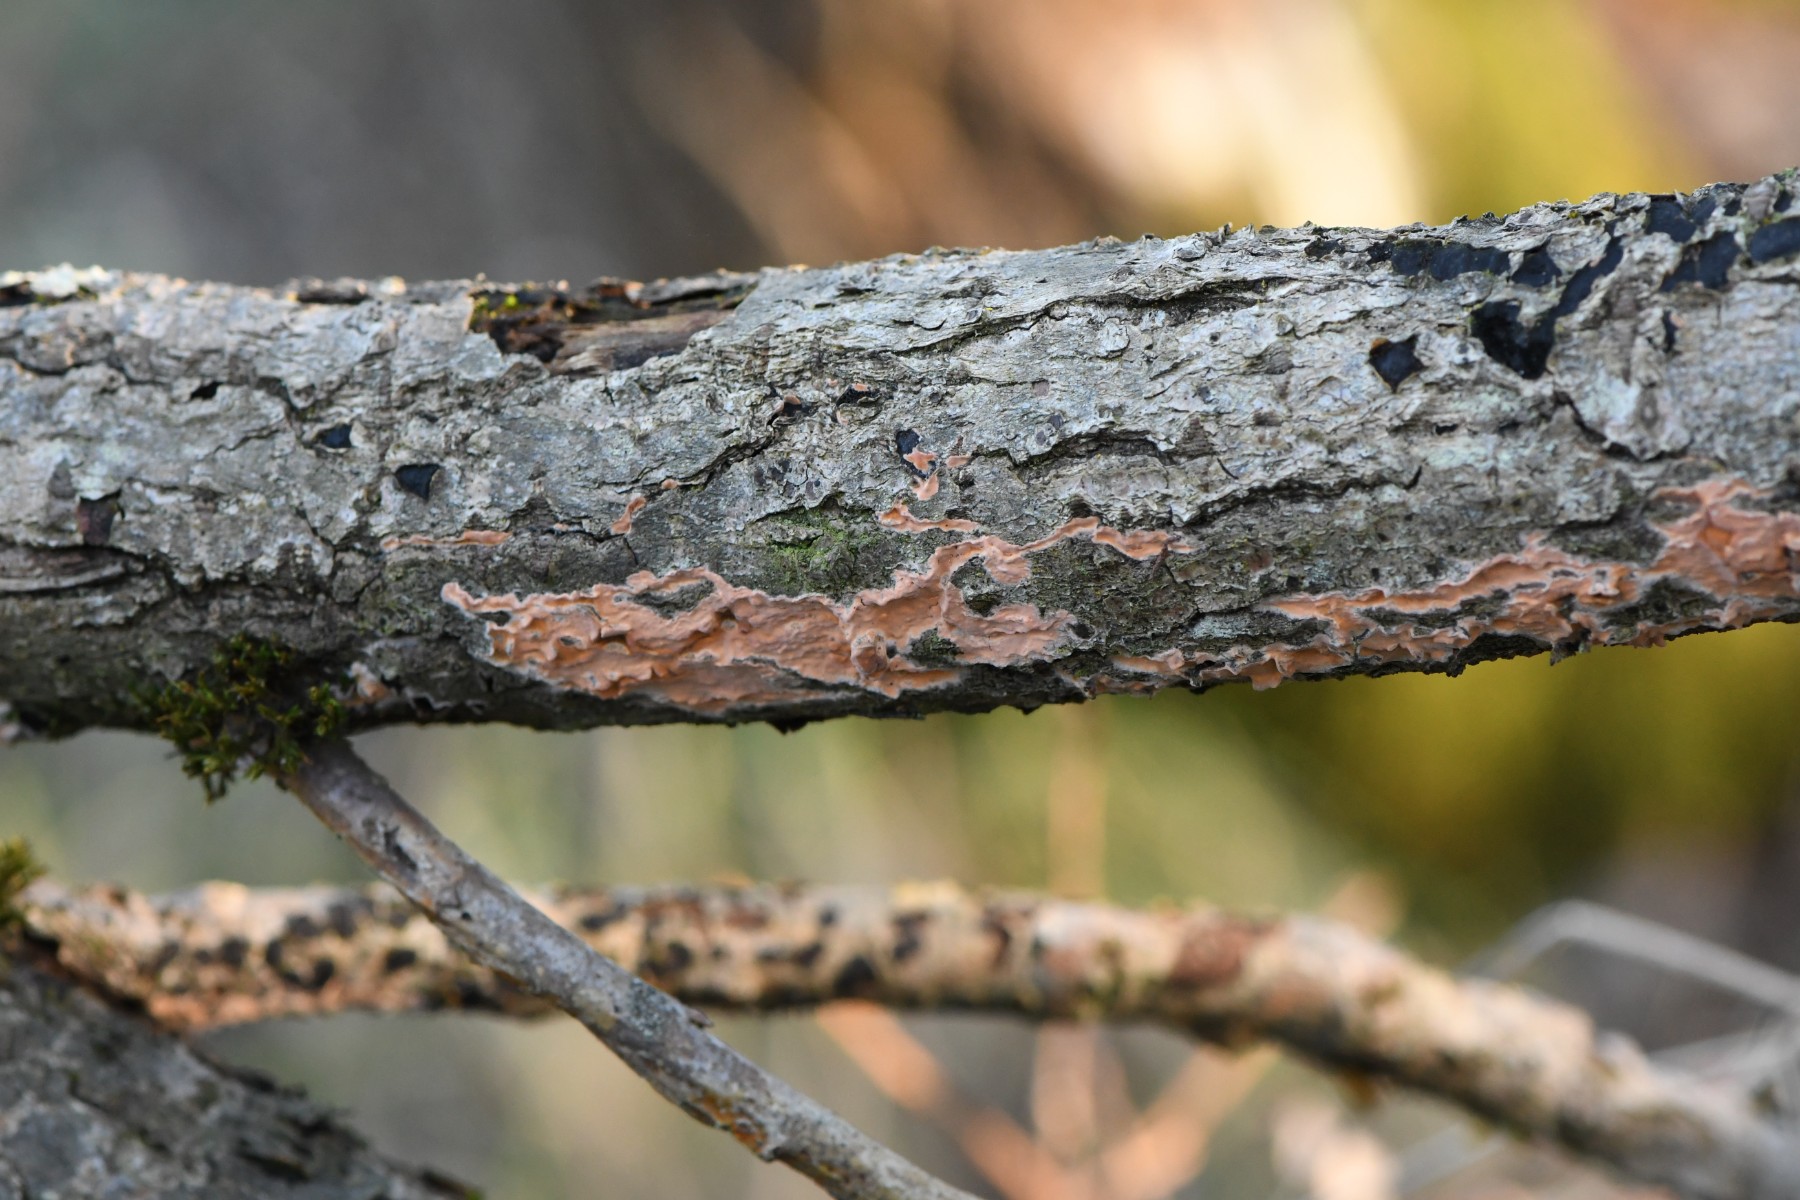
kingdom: Fungi
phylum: Basidiomycota
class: Agaricomycetes
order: Russulales
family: Peniophoraceae
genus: Peniophora
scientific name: Peniophora incarnata
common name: laksefarvet voksskind
